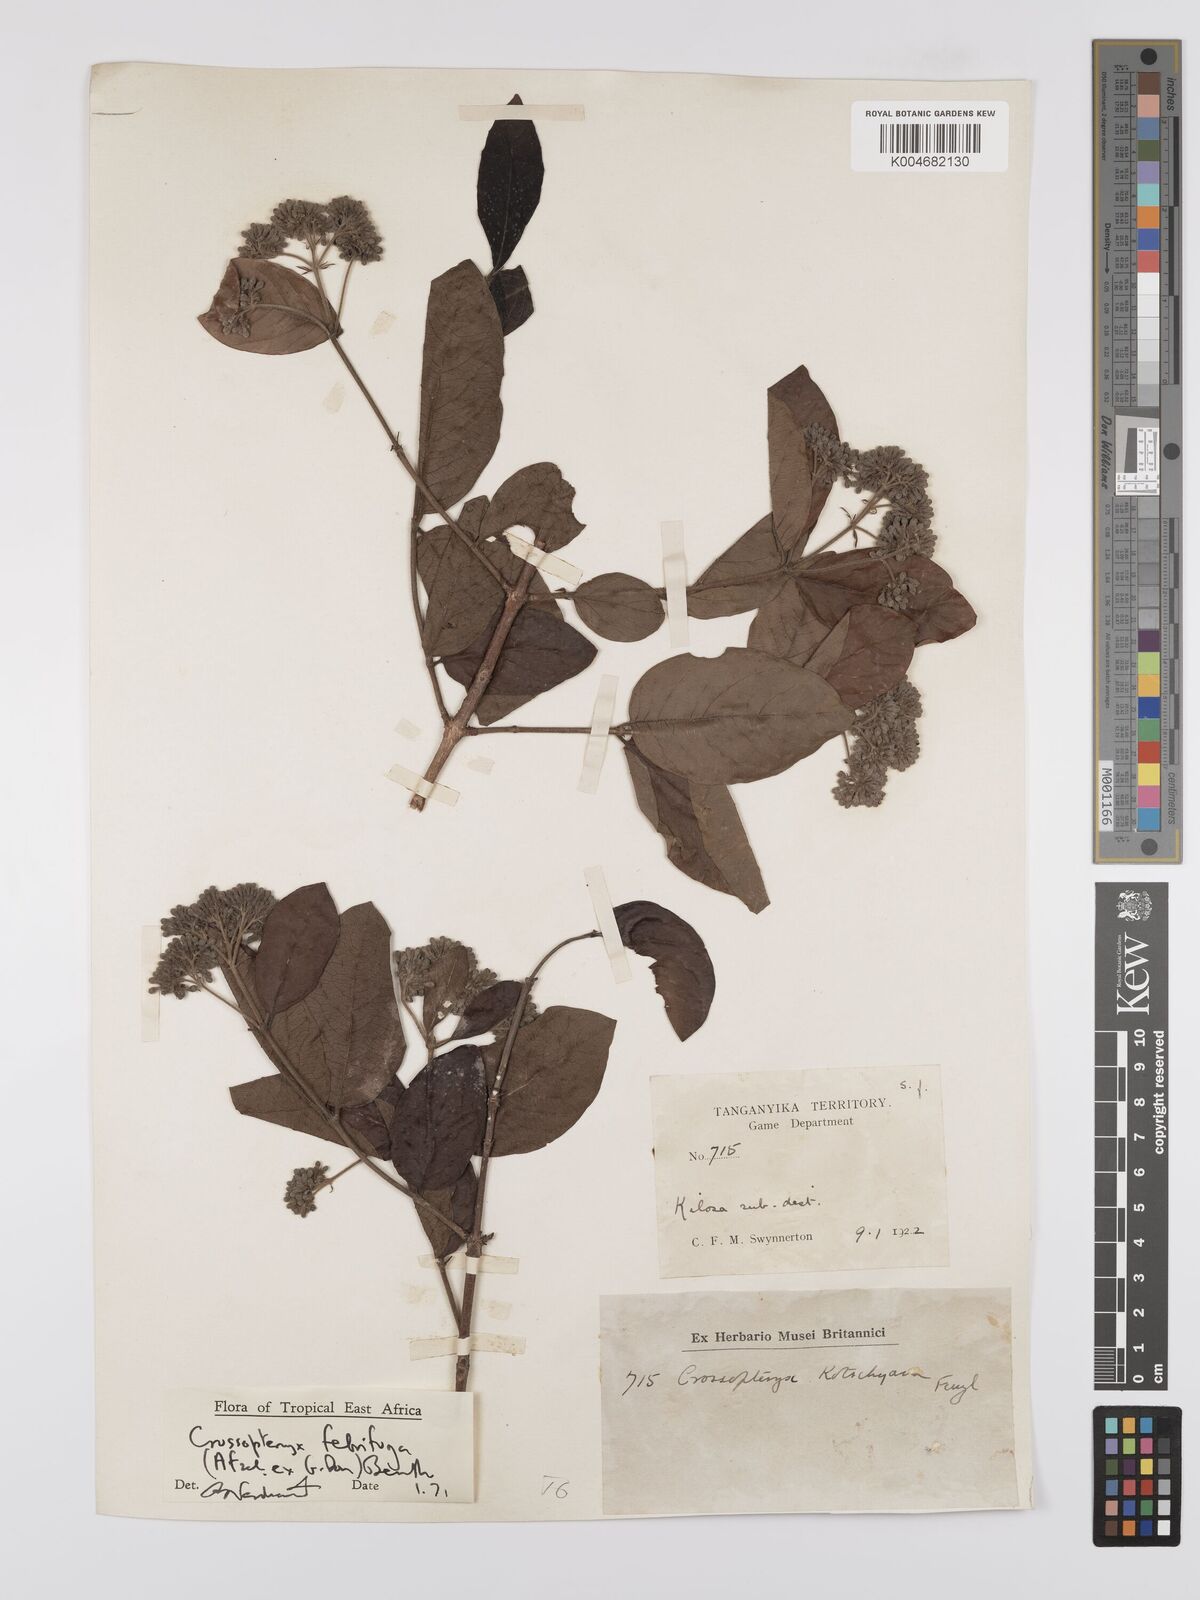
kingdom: Plantae
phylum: Tracheophyta
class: Magnoliopsida
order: Gentianales
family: Rubiaceae
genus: Crossopteryx
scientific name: Crossopteryx febrifuga
